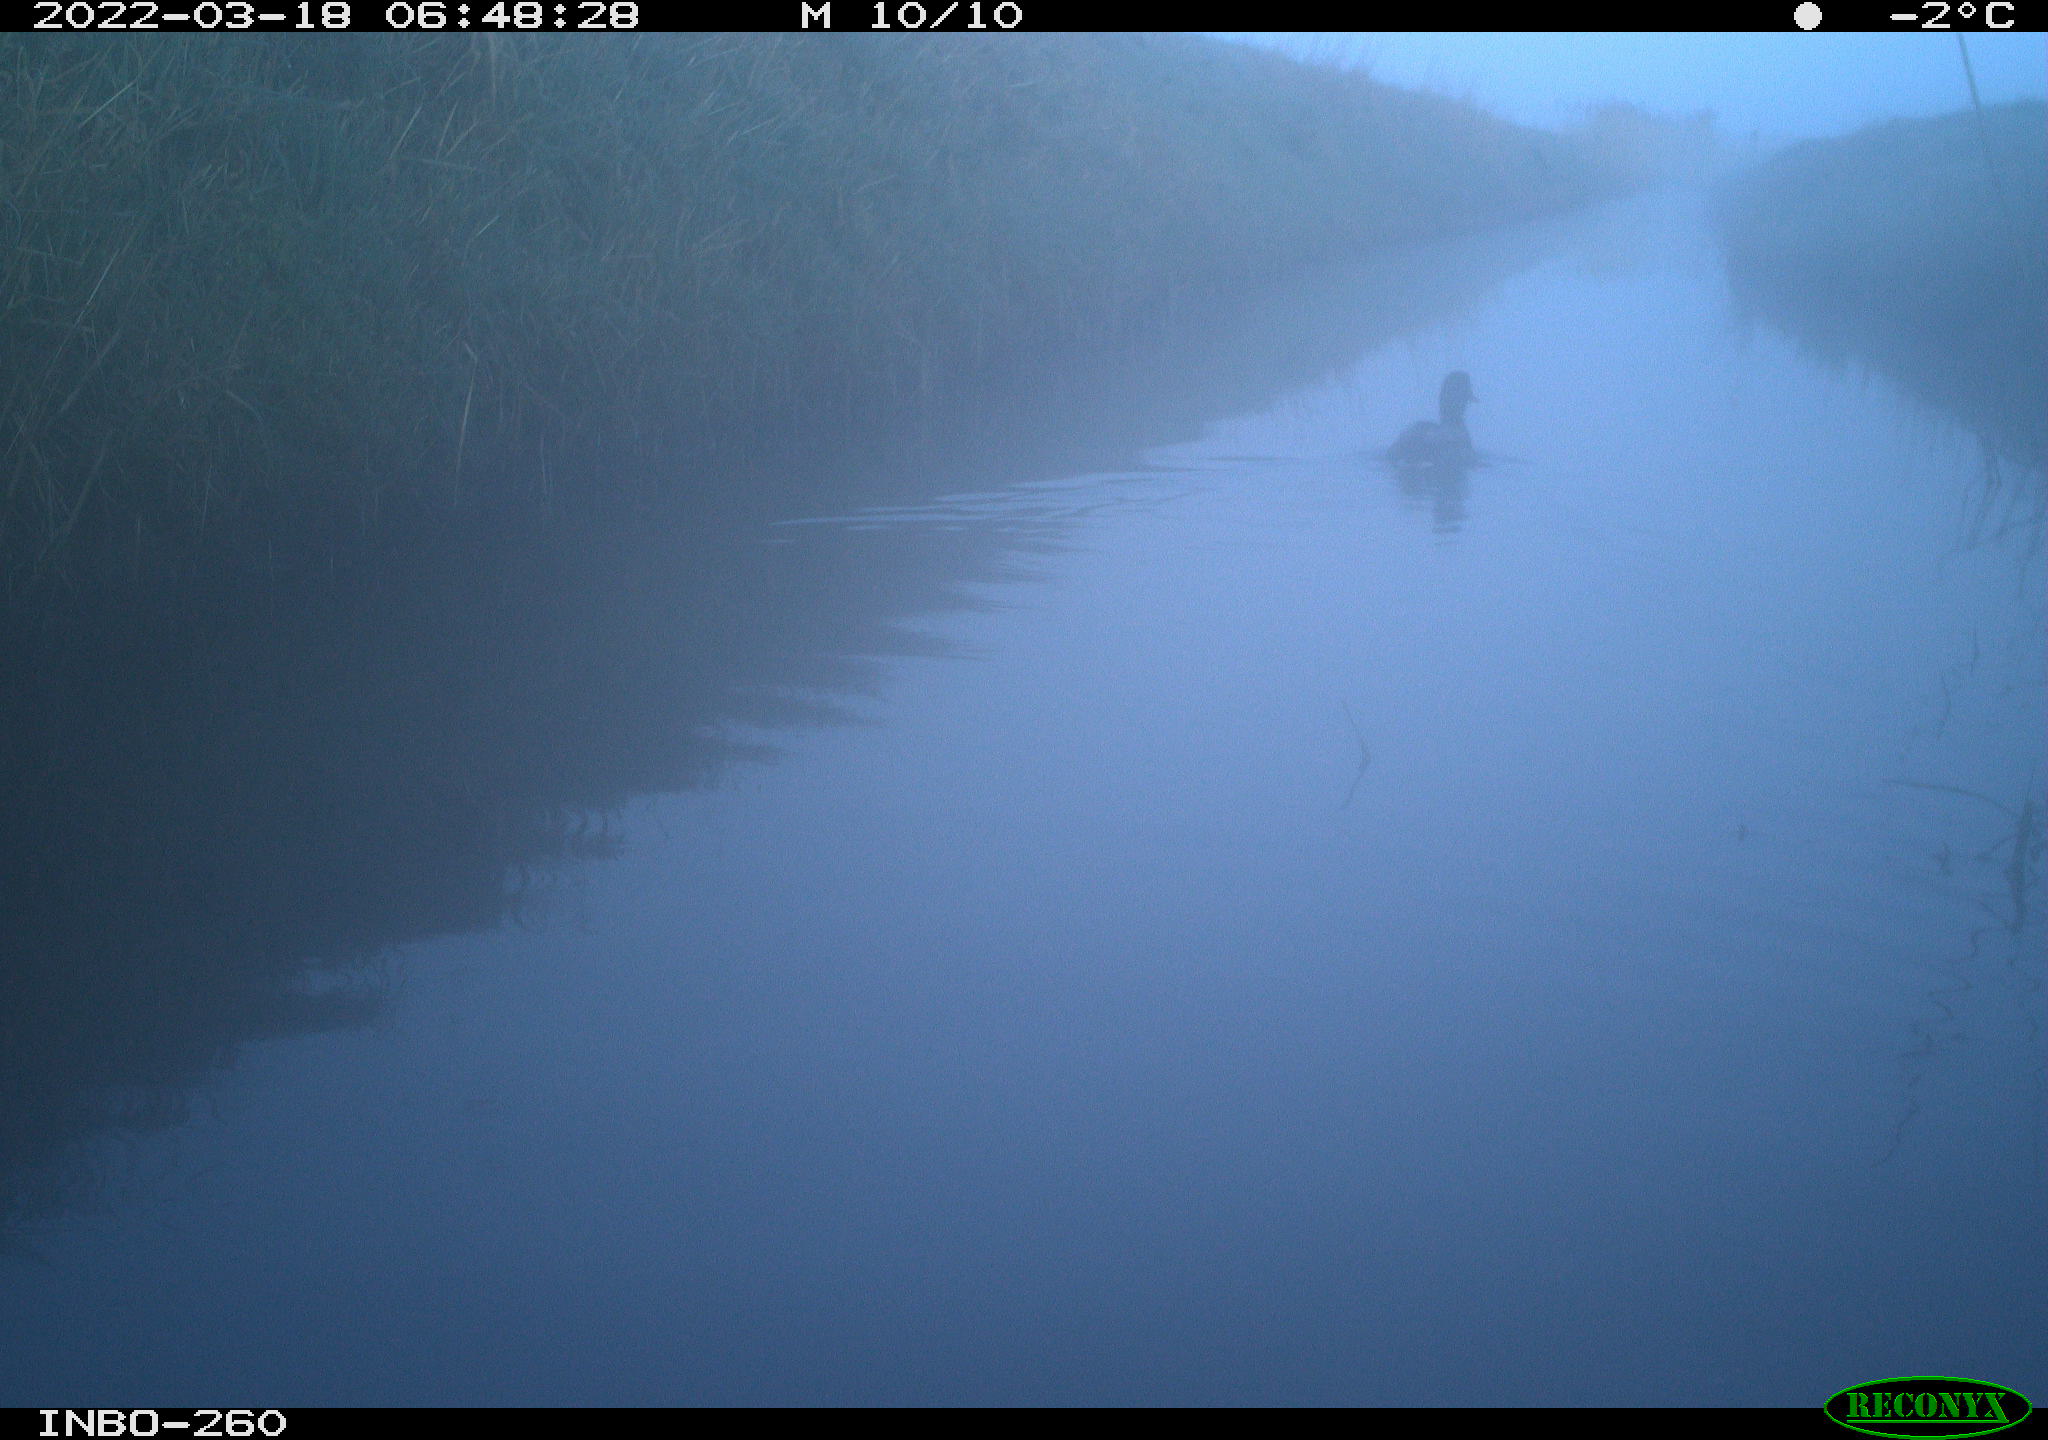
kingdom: Animalia
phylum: Chordata
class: Aves
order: Anseriformes
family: Anatidae
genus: Anas
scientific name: Anas platyrhynchos
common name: Mallard
